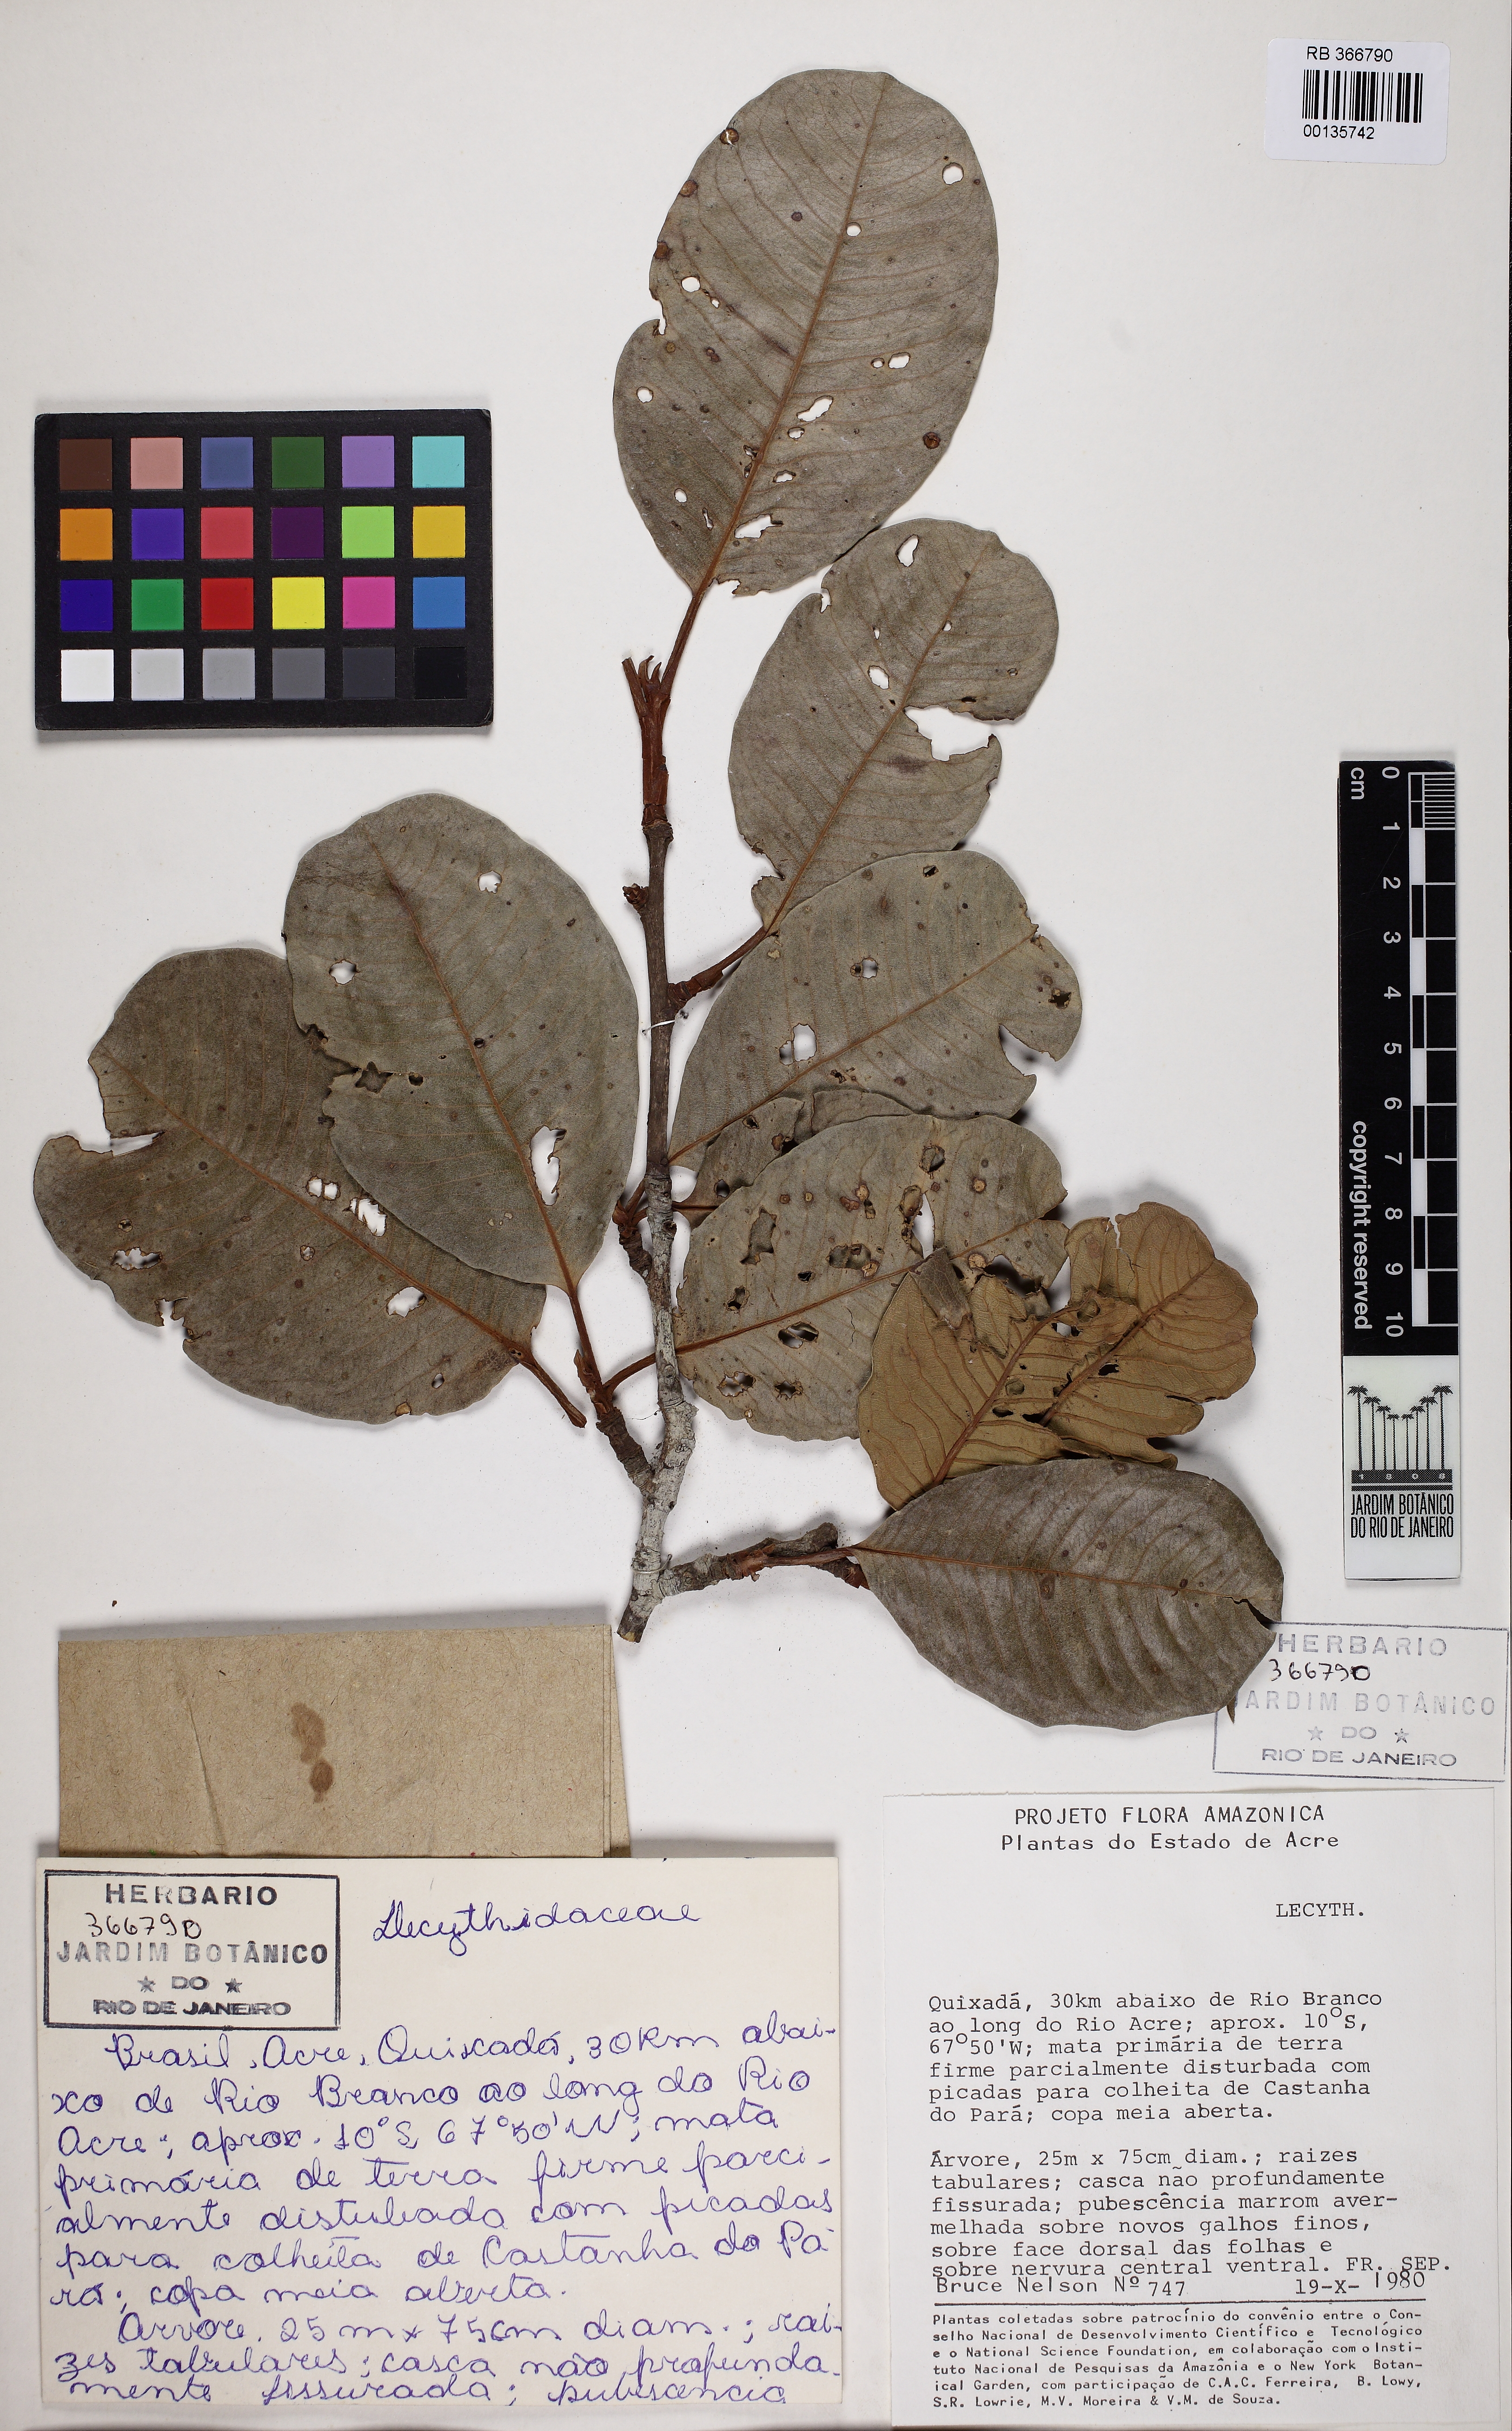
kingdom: Plantae
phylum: Tracheophyta
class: Magnoliopsida
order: Ericales
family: Lecythidaceae
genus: Couratari
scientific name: Couratari guianensis
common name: Fine-leaf wadara
